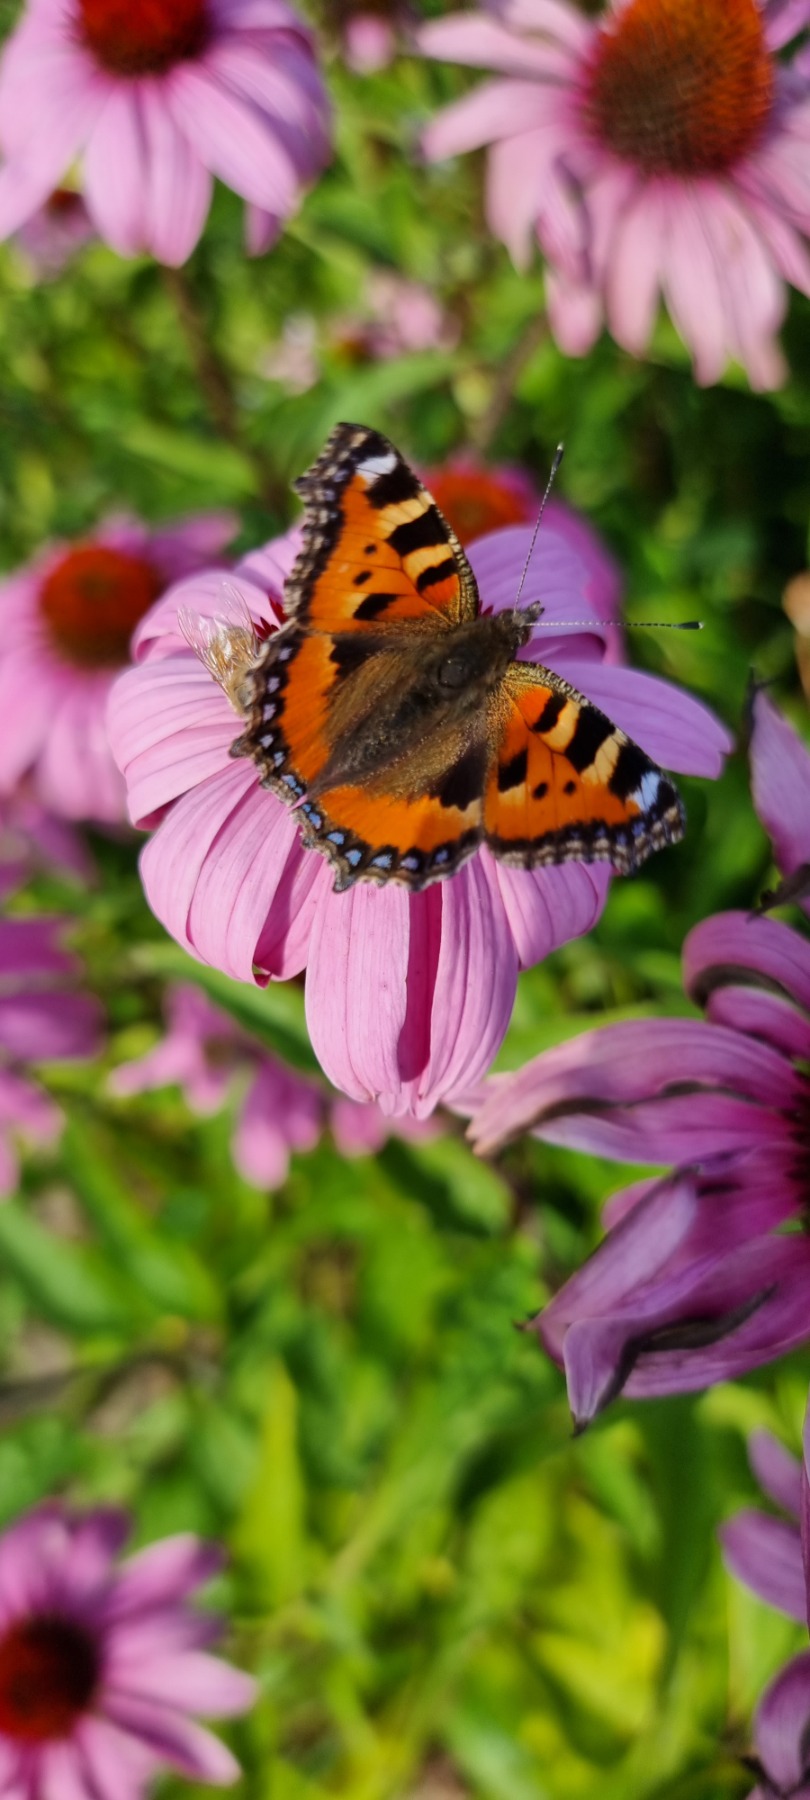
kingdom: Animalia
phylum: Arthropoda
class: Insecta
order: Lepidoptera
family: Nymphalidae
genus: Aglais
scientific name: Aglais urticae
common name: Nældens takvinge
